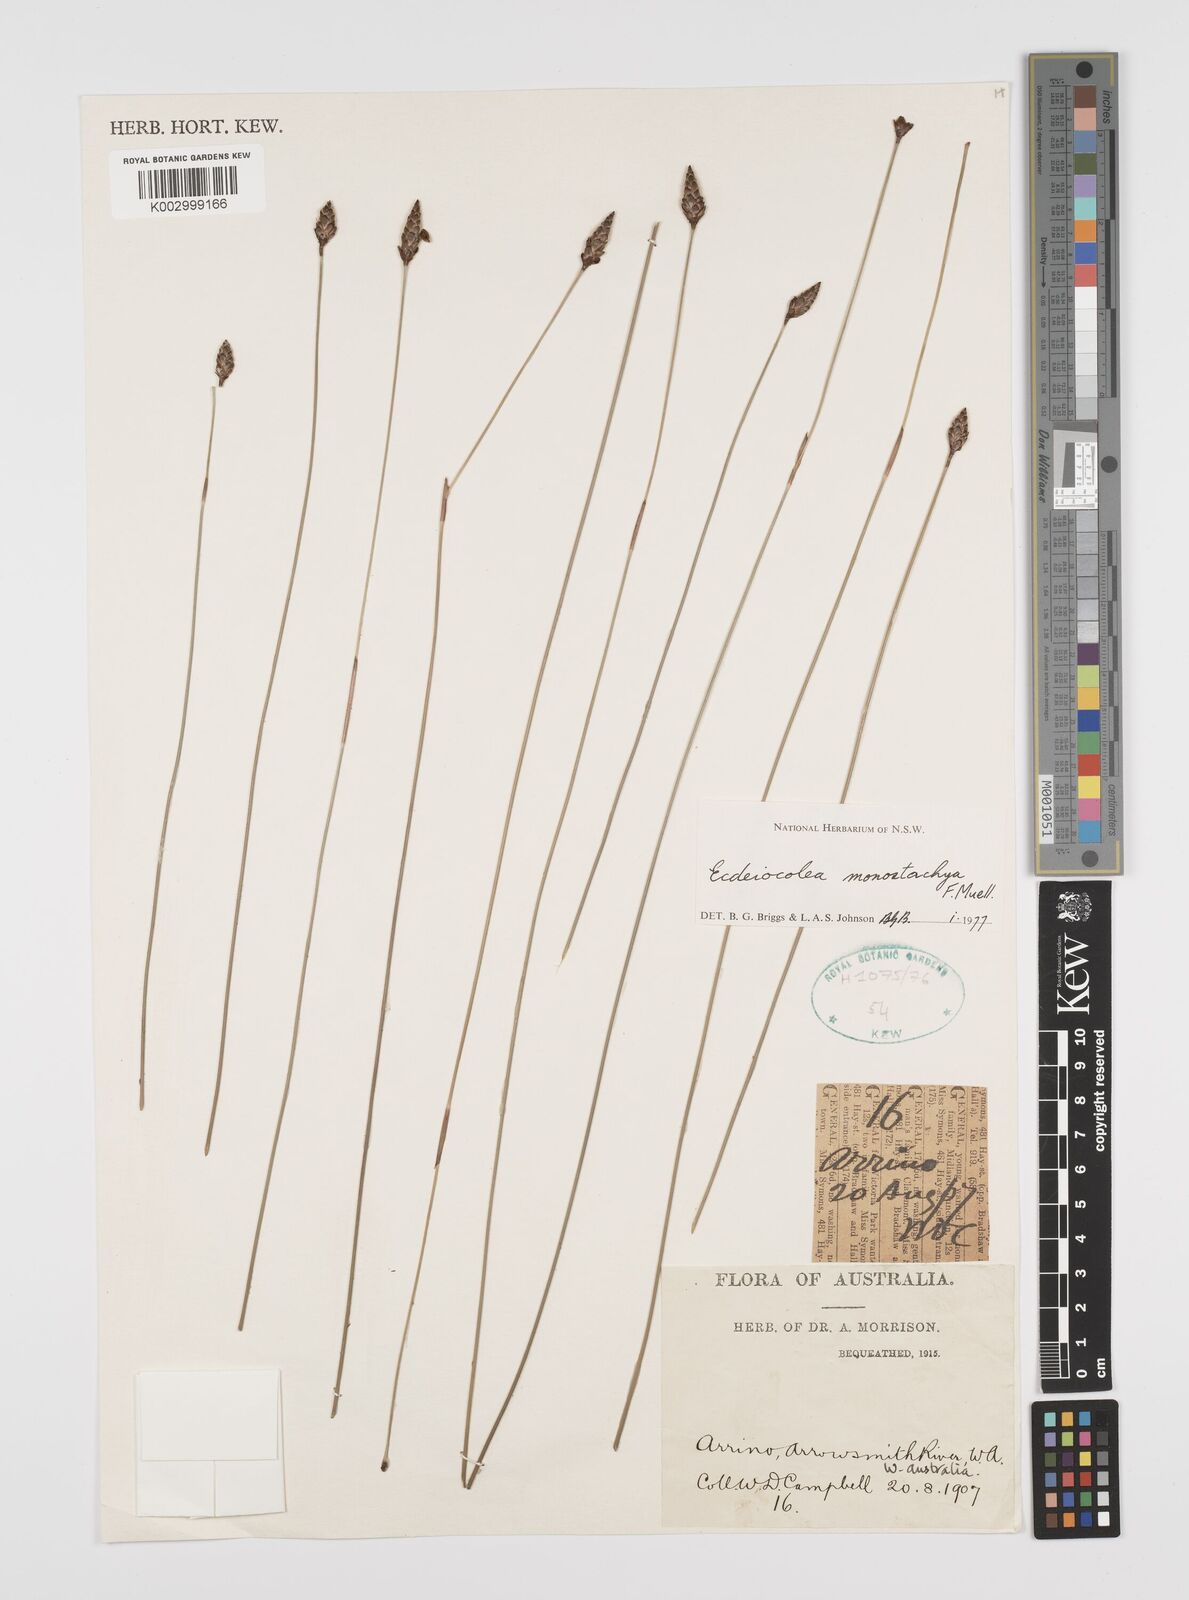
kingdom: Plantae
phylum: Tracheophyta
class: Liliopsida
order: Poales
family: Ecdeiocoleaceae
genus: Ecdeiocolea
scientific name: Ecdeiocolea monostachya
